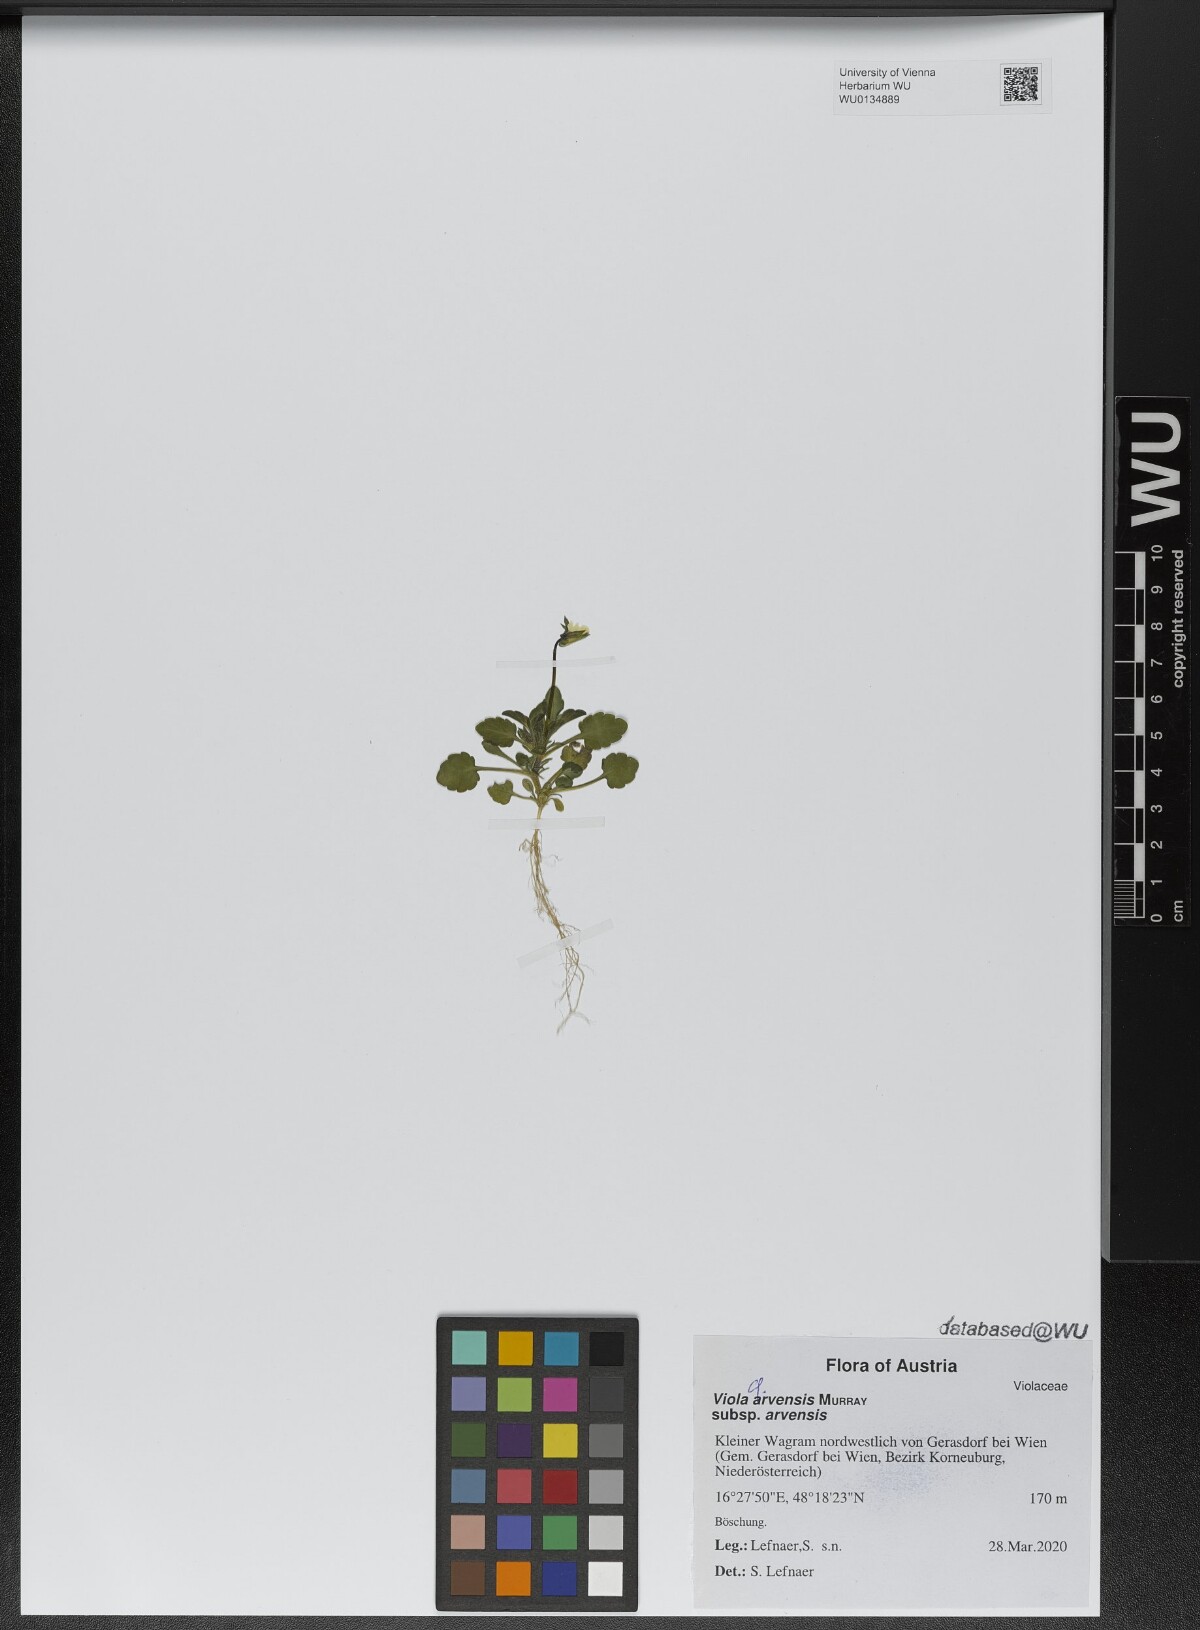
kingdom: Plantae
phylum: Tracheophyta
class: Magnoliopsida
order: Malpighiales
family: Violaceae
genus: Viola
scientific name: Viola arvensis
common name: Field pansy
